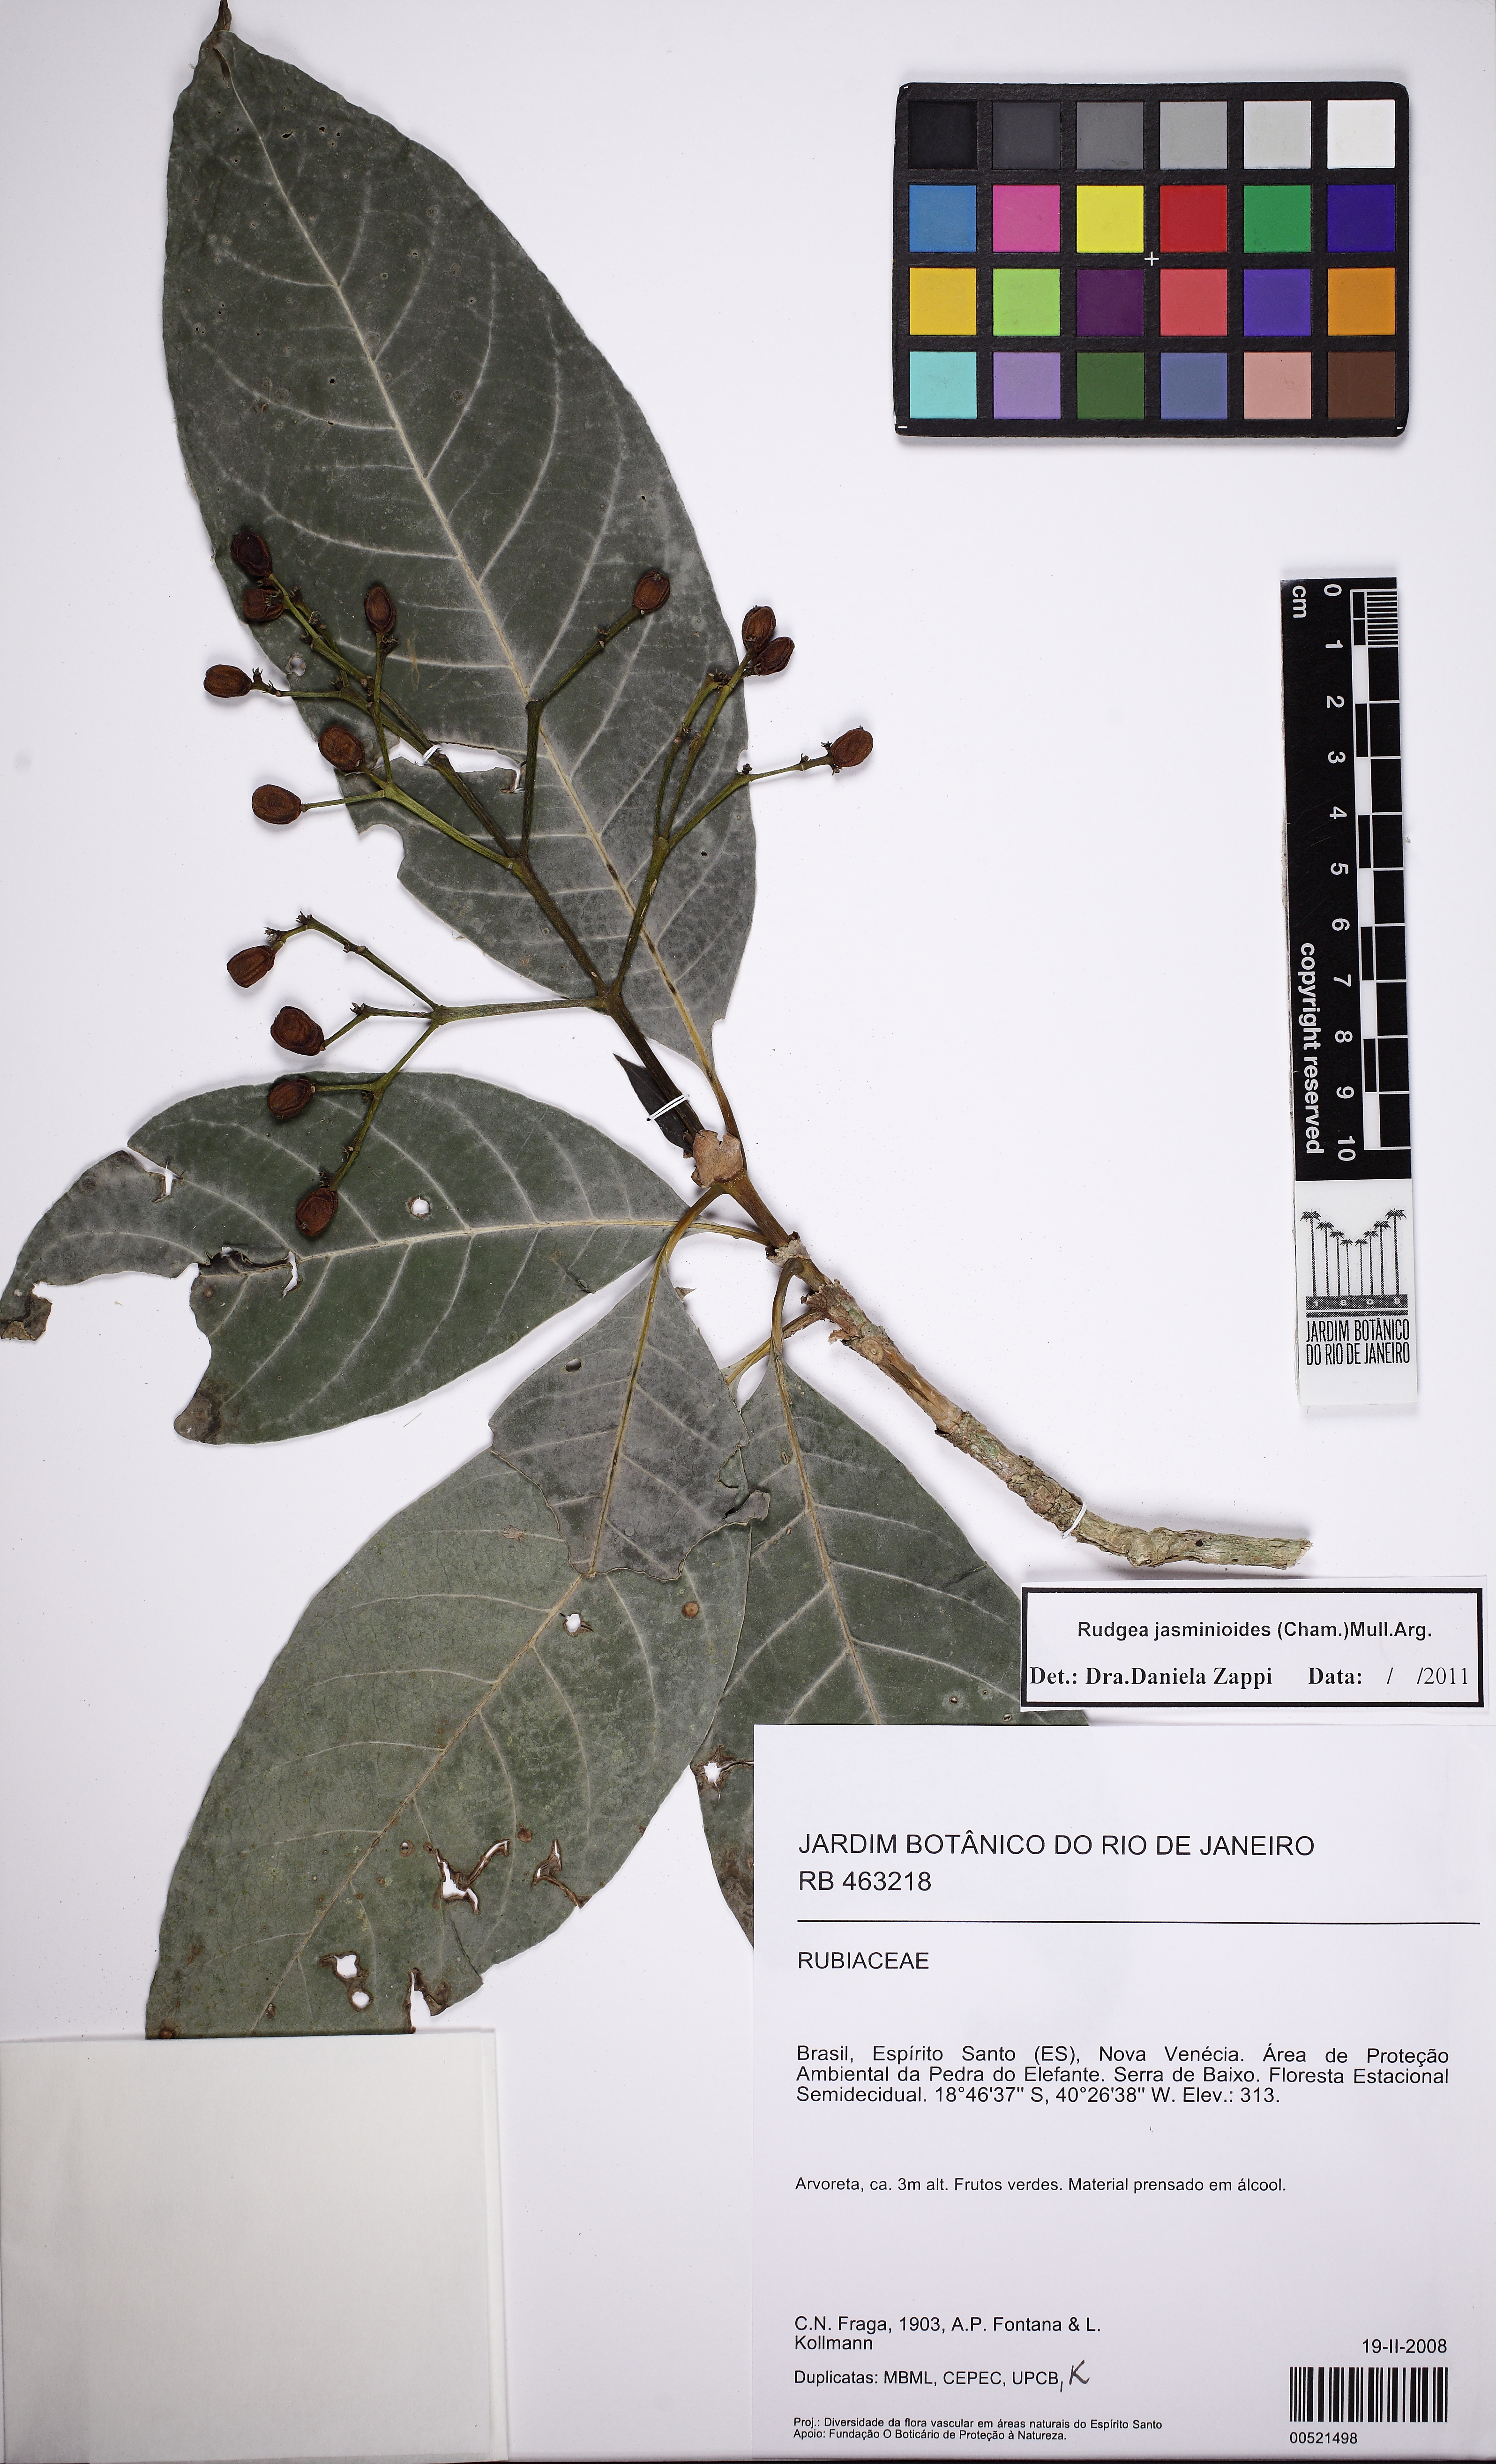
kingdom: Plantae
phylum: Tracheophyta
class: Magnoliopsida
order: Gentianales
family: Rubiaceae
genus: Rudgea
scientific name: Rudgea jasminoides
